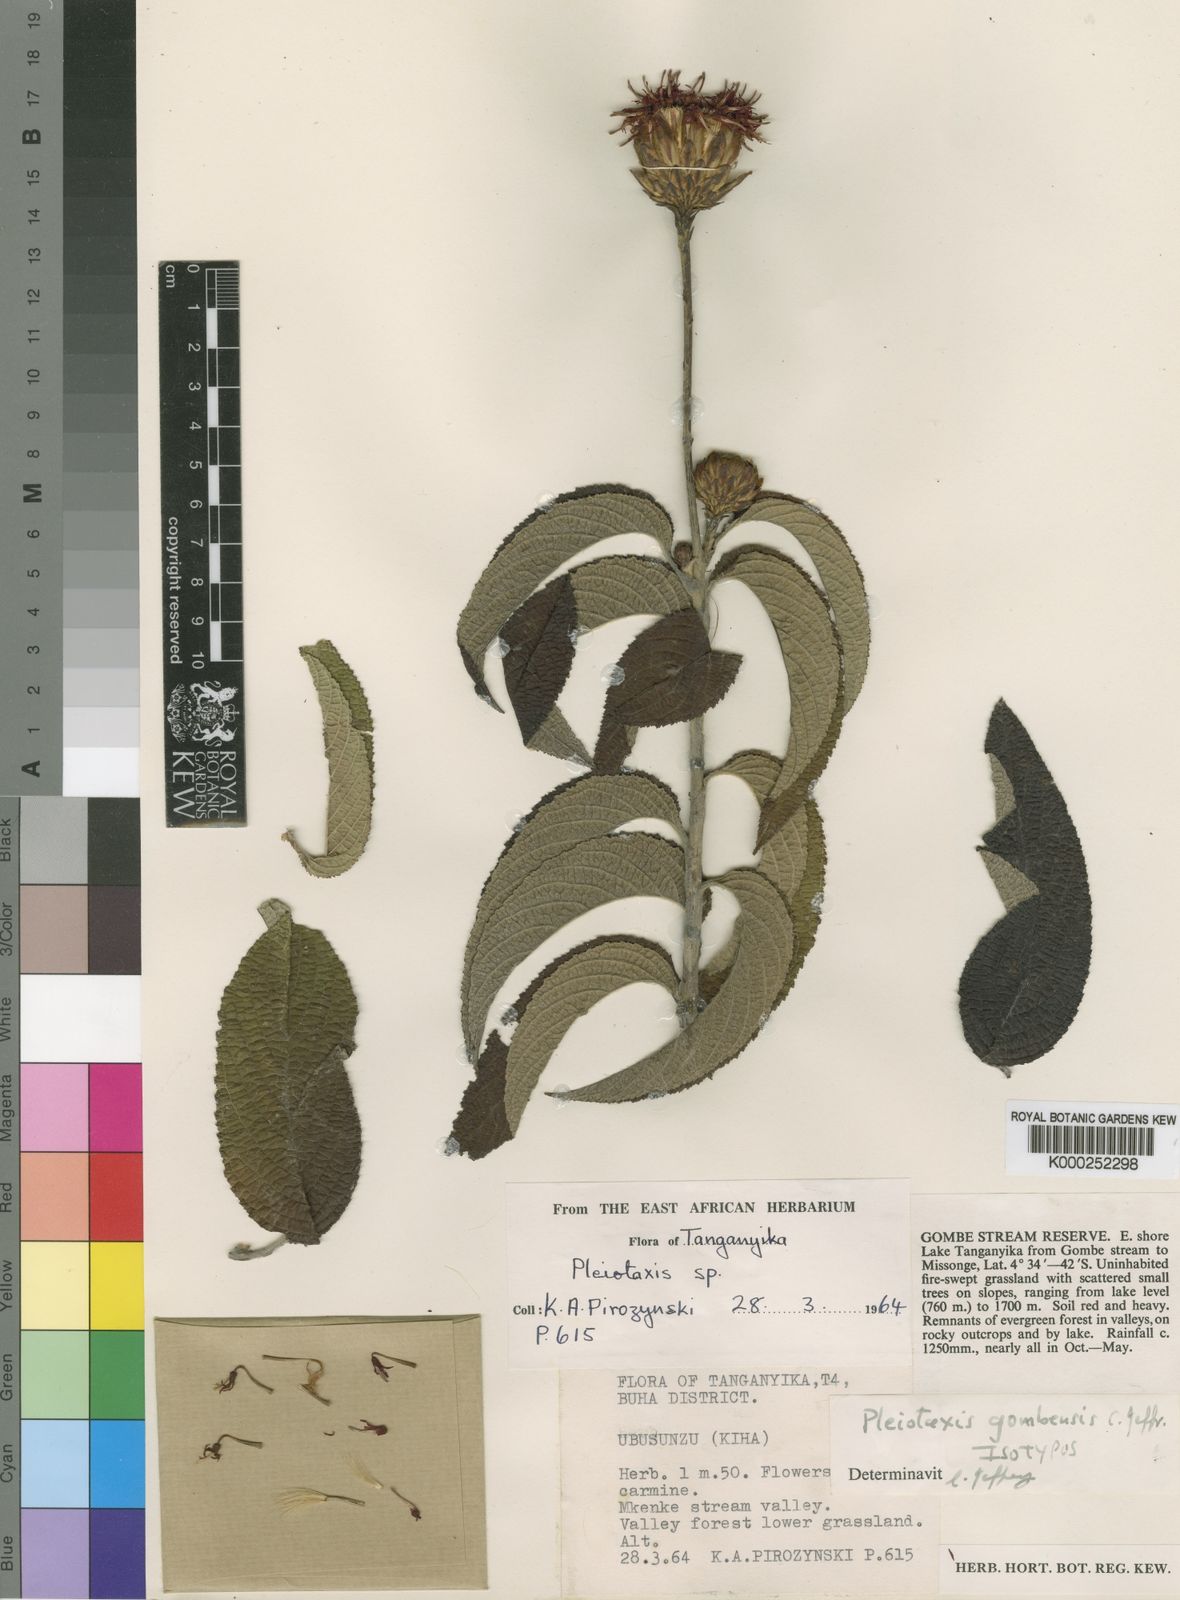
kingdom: Plantae
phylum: Tracheophyta
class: Magnoliopsida
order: Asterales
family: Asteraceae
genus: Pleiotaxis
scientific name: Pleiotaxis gombensis
